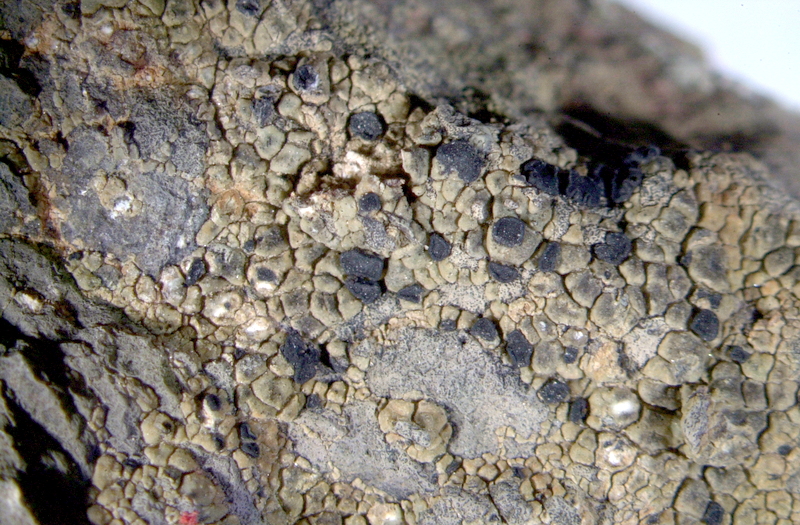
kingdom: Fungi
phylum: Ascomycota
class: Lecanoromycetes
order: Caliciales
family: Caliciaceae
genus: Buellia
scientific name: Buellia
